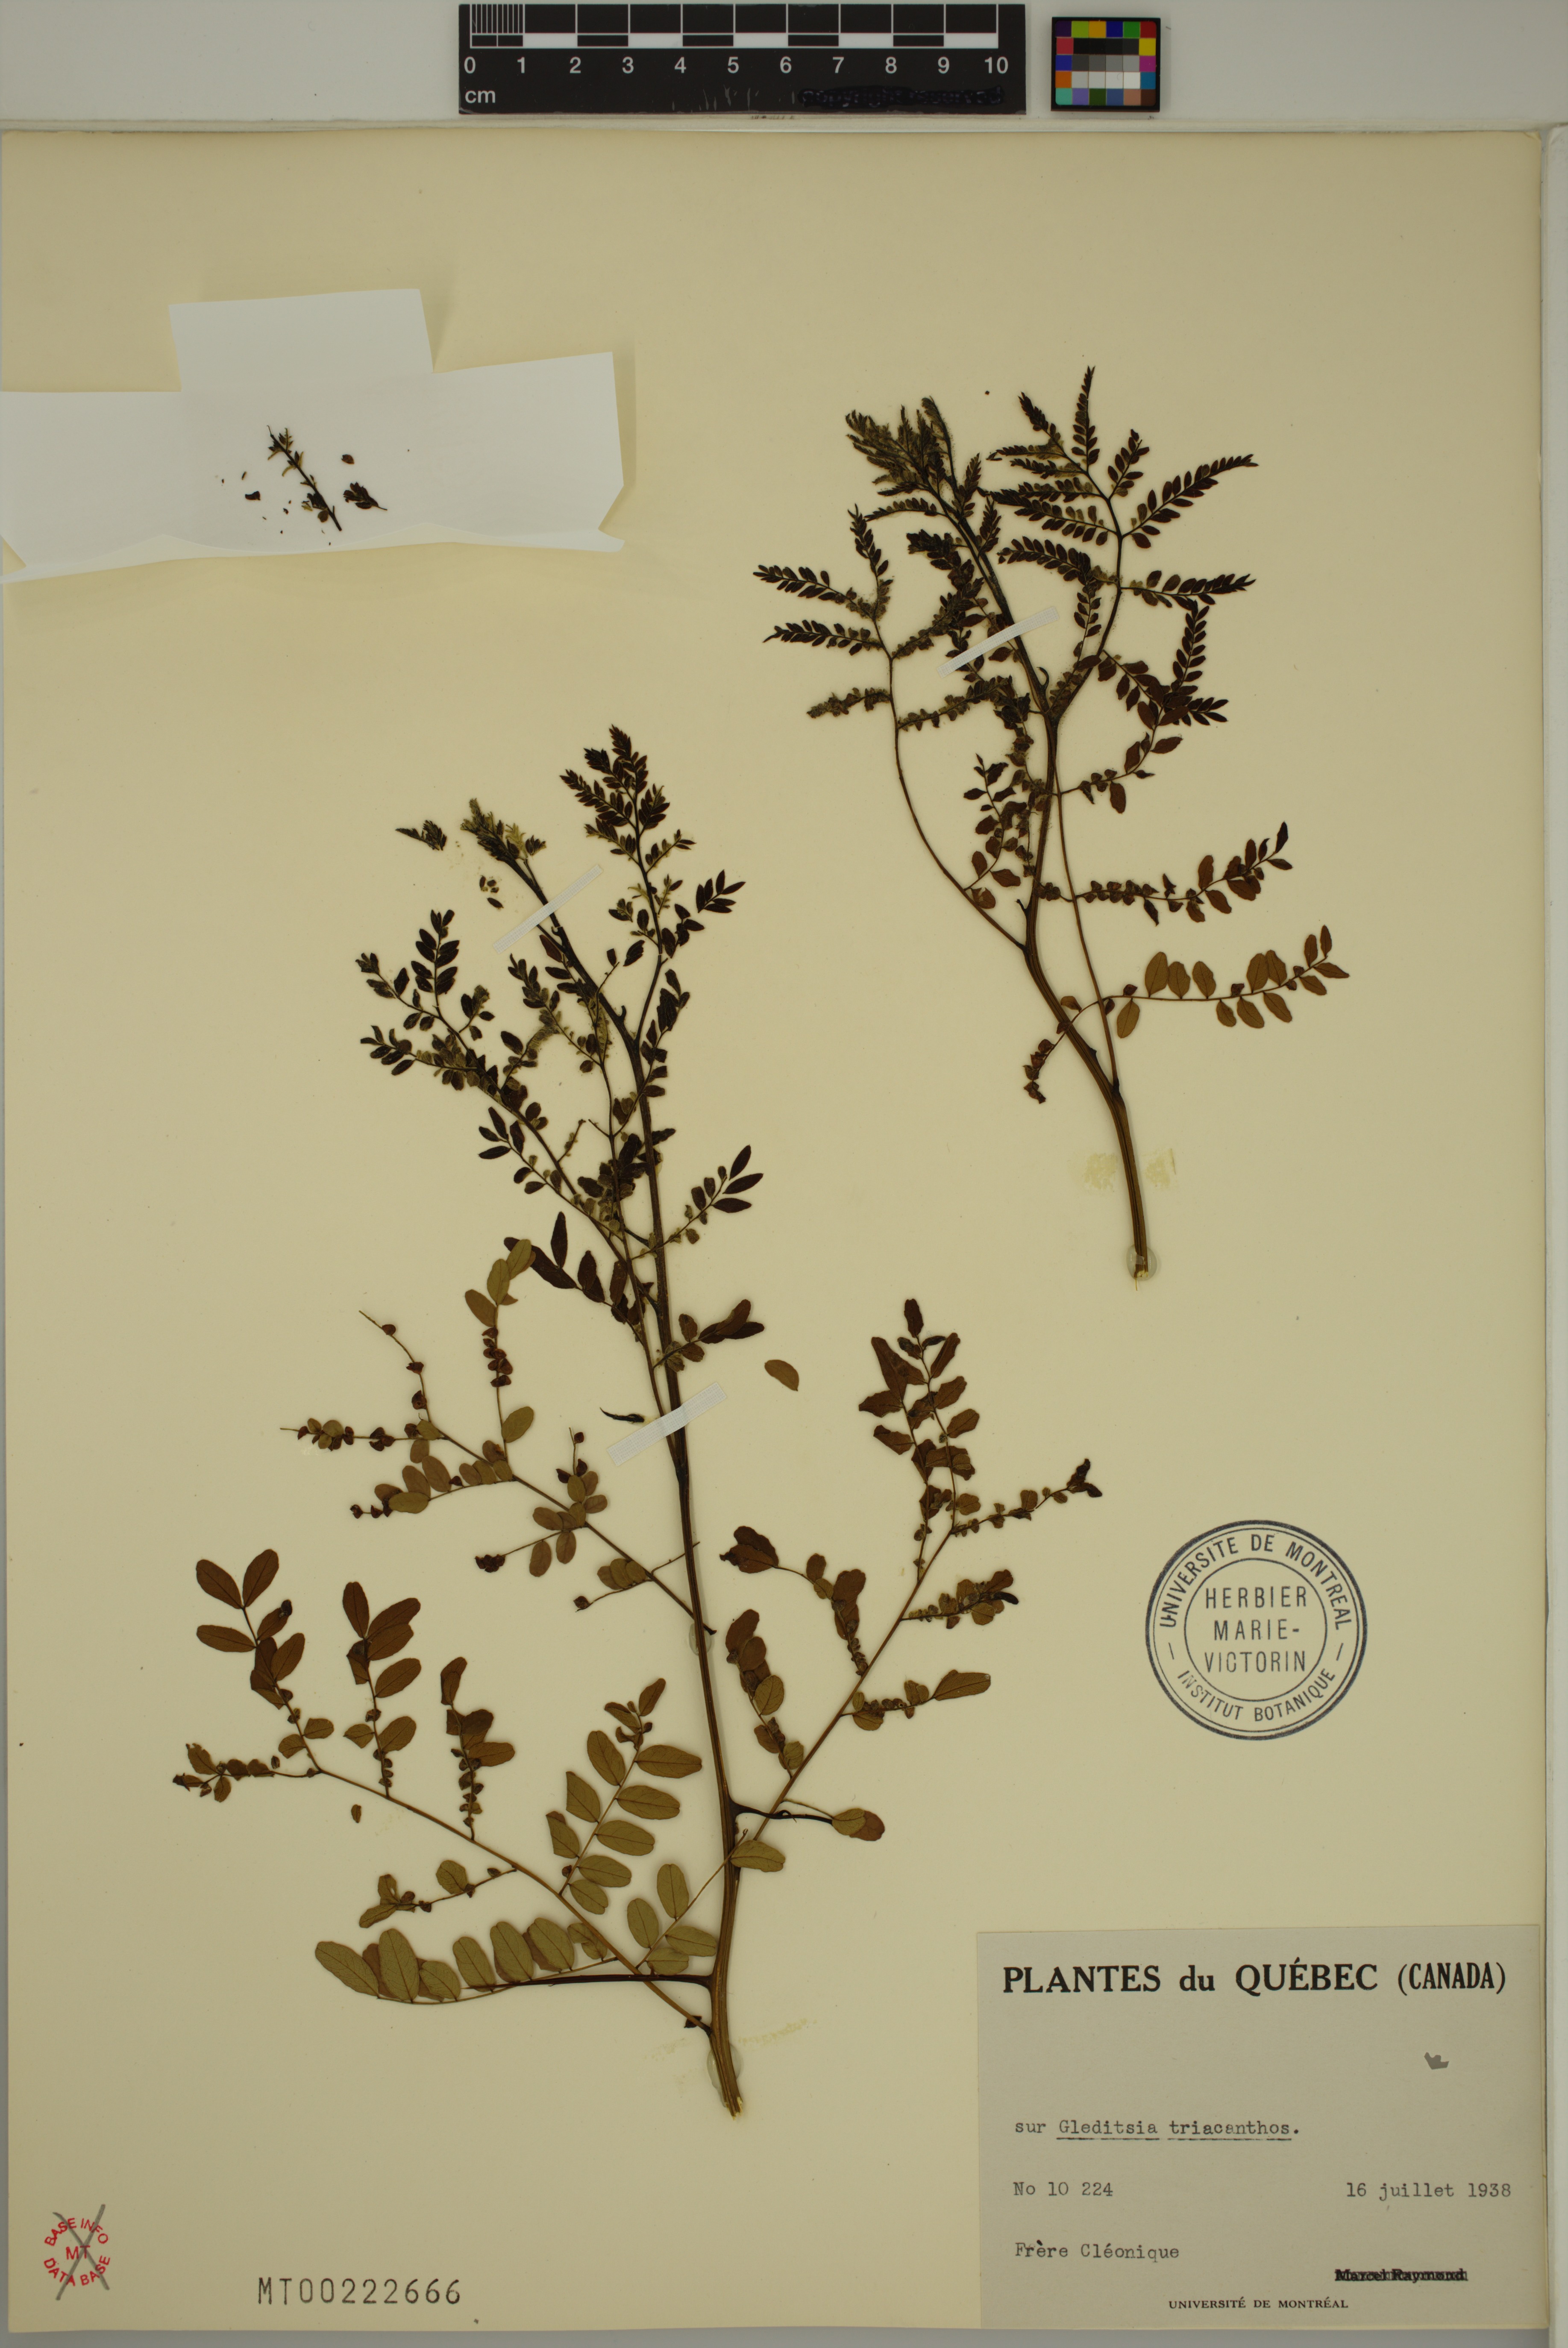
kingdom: Plantae
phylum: Tracheophyta
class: Magnoliopsida
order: Fabales
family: Fabaceae
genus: Gleditsia
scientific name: Gleditsia triacanthos
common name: Common honeylocust
